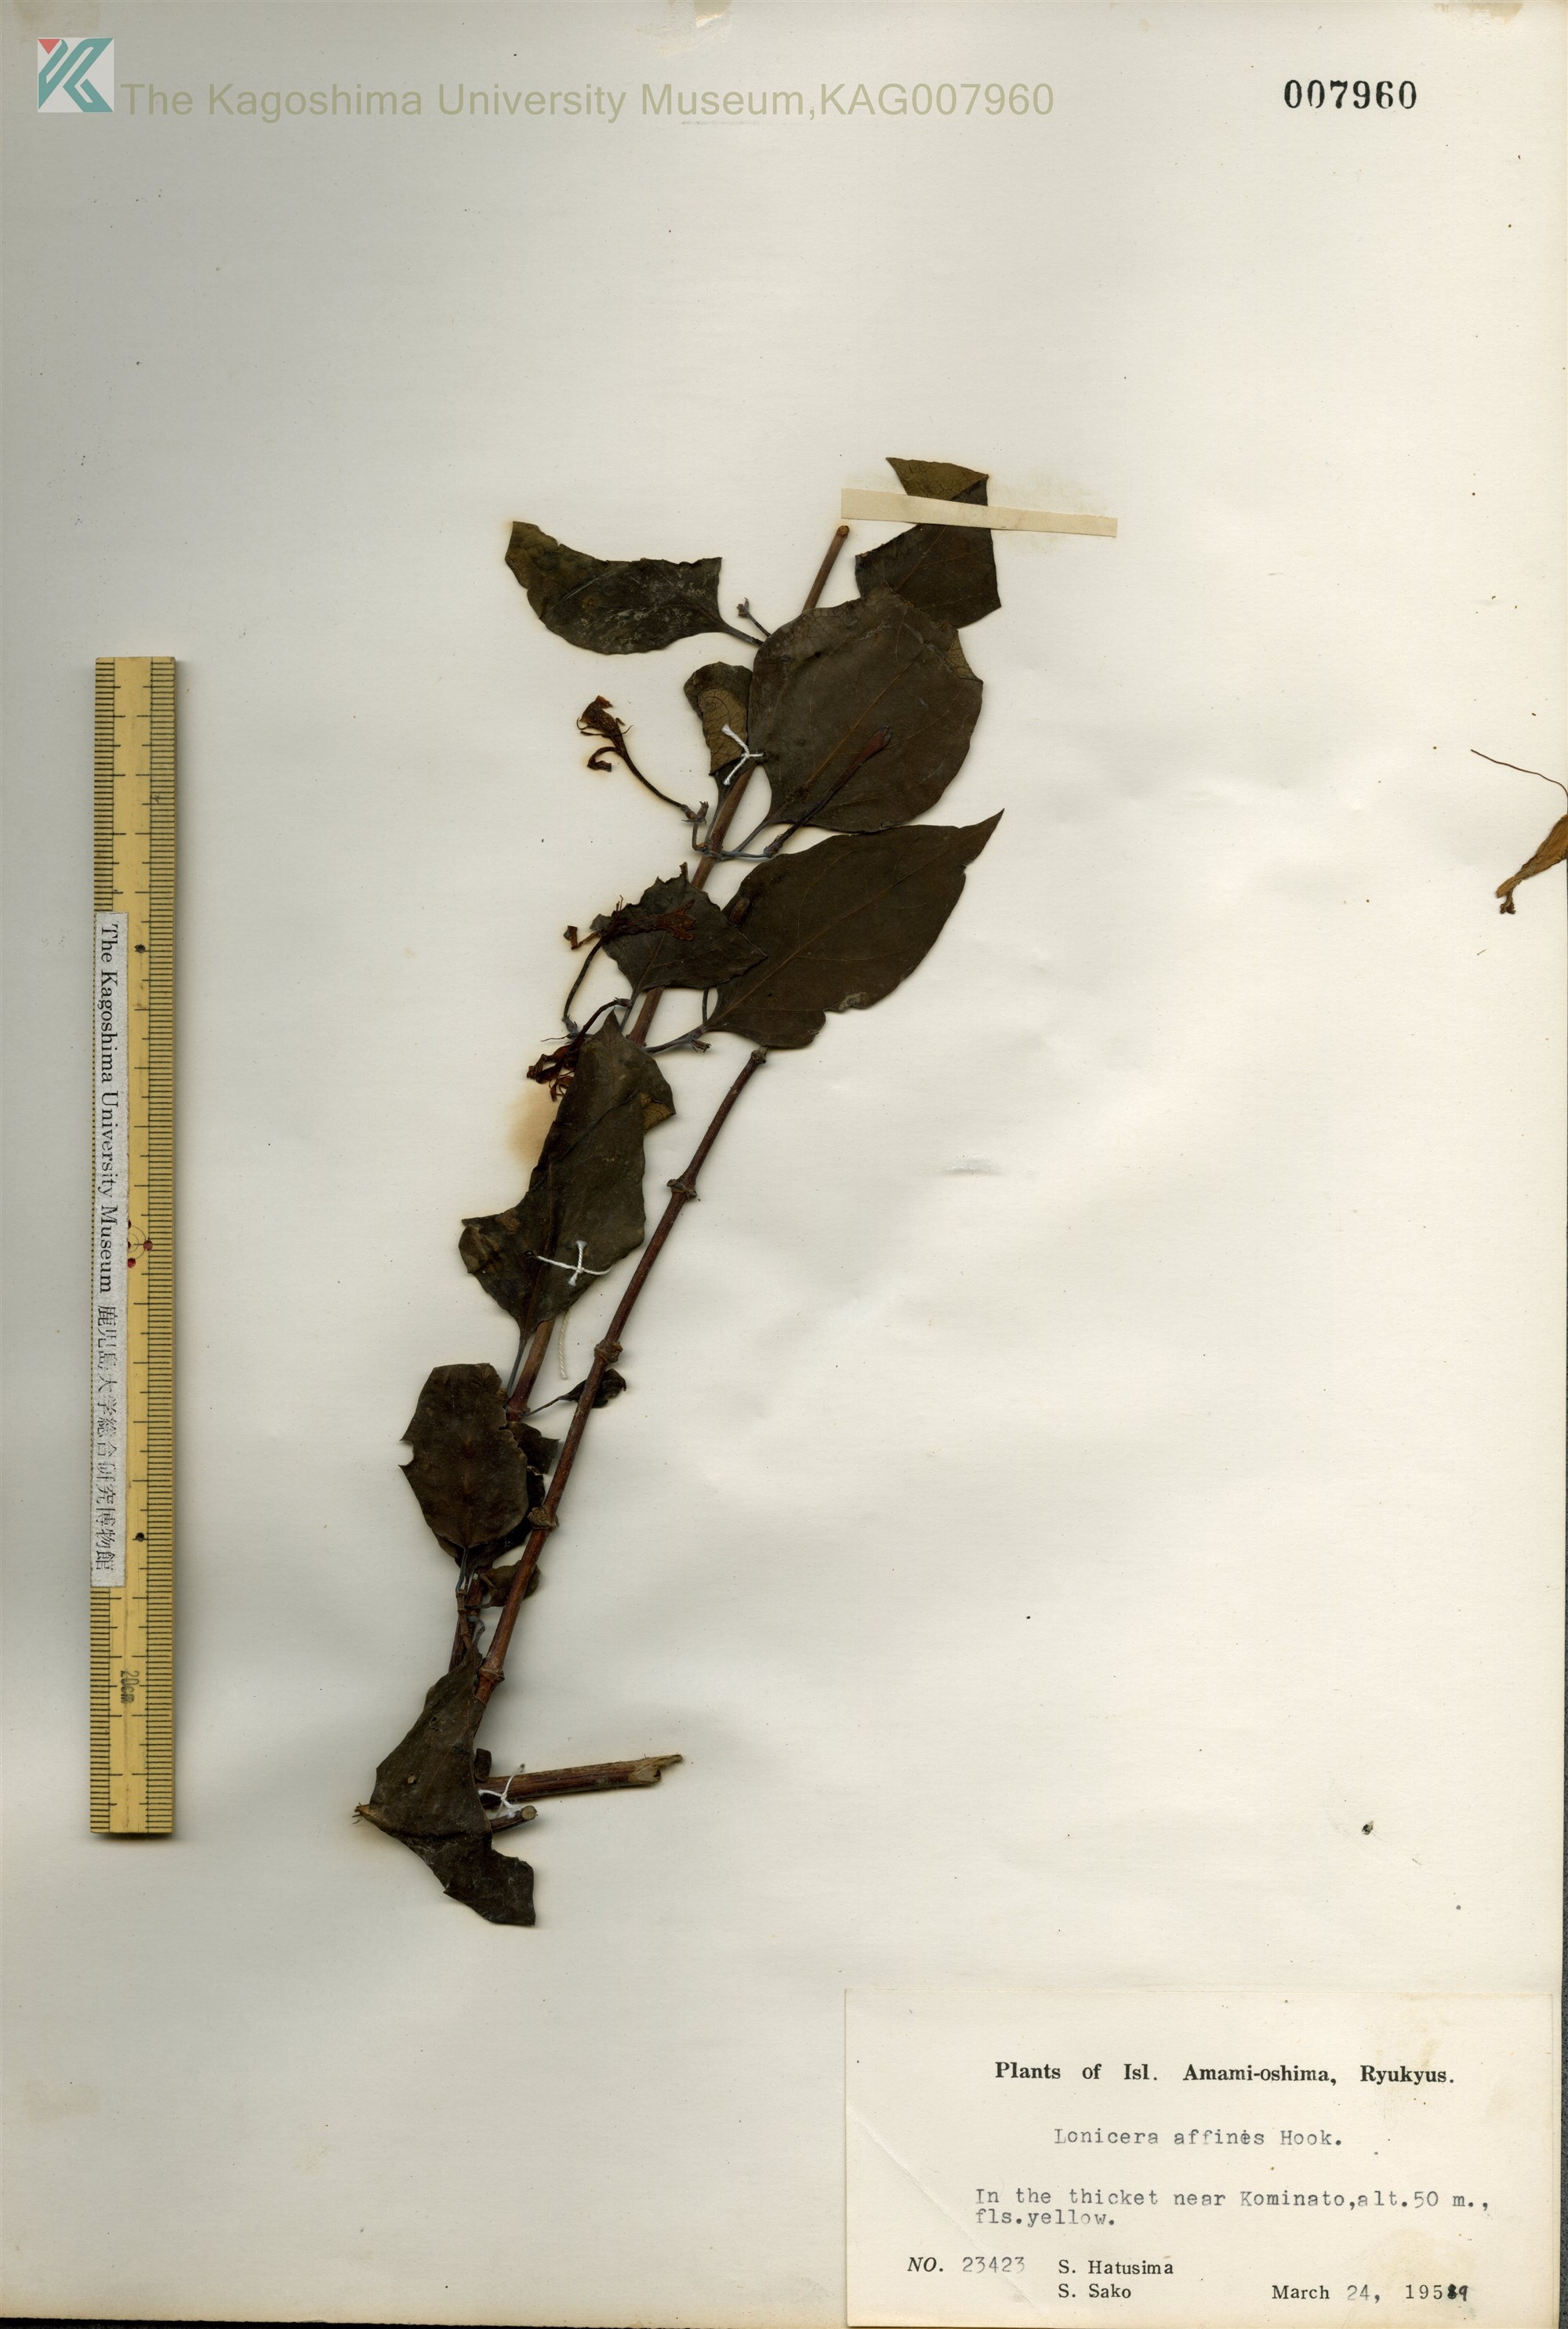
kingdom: Plantae
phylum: Tracheophyta
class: Magnoliopsida
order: Dipsacales
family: Caprifoliaceae
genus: Lonicera
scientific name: Lonicera affinis
